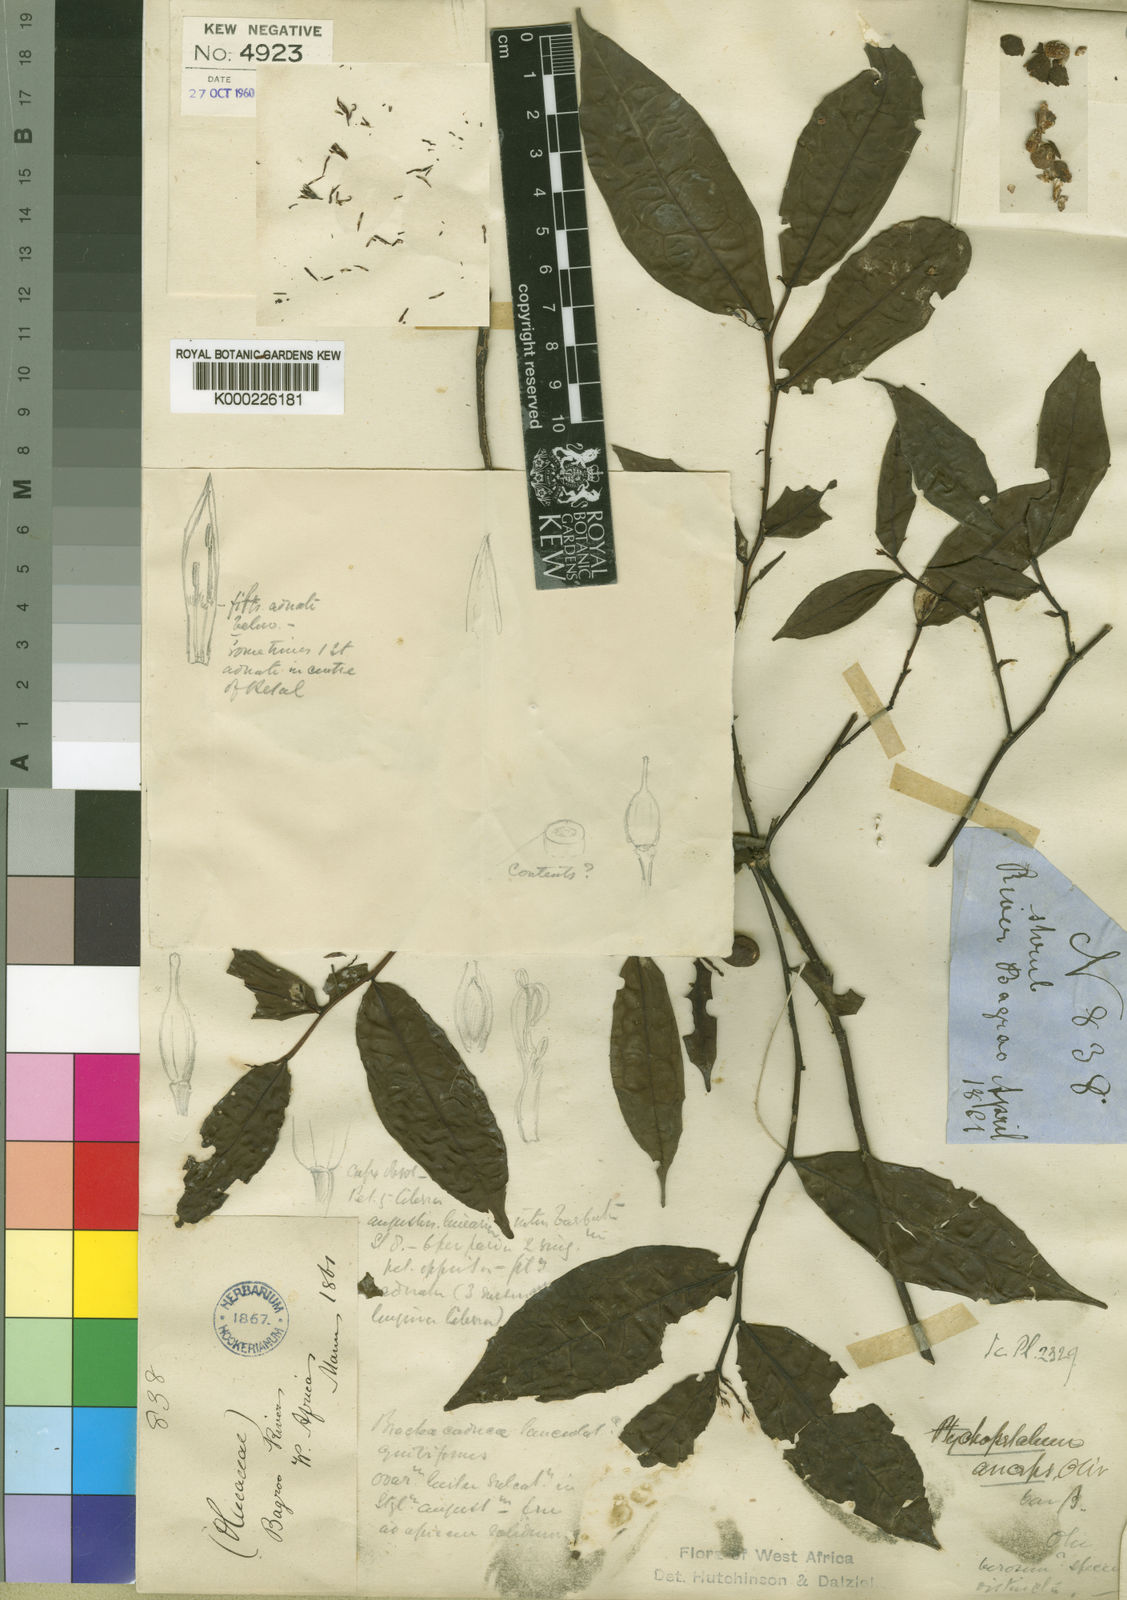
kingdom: Plantae
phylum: Tracheophyta
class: Magnoliopsida
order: Santalales
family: Olacaceae
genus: Ptychopetalum
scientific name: Ptychopetalum anceps
